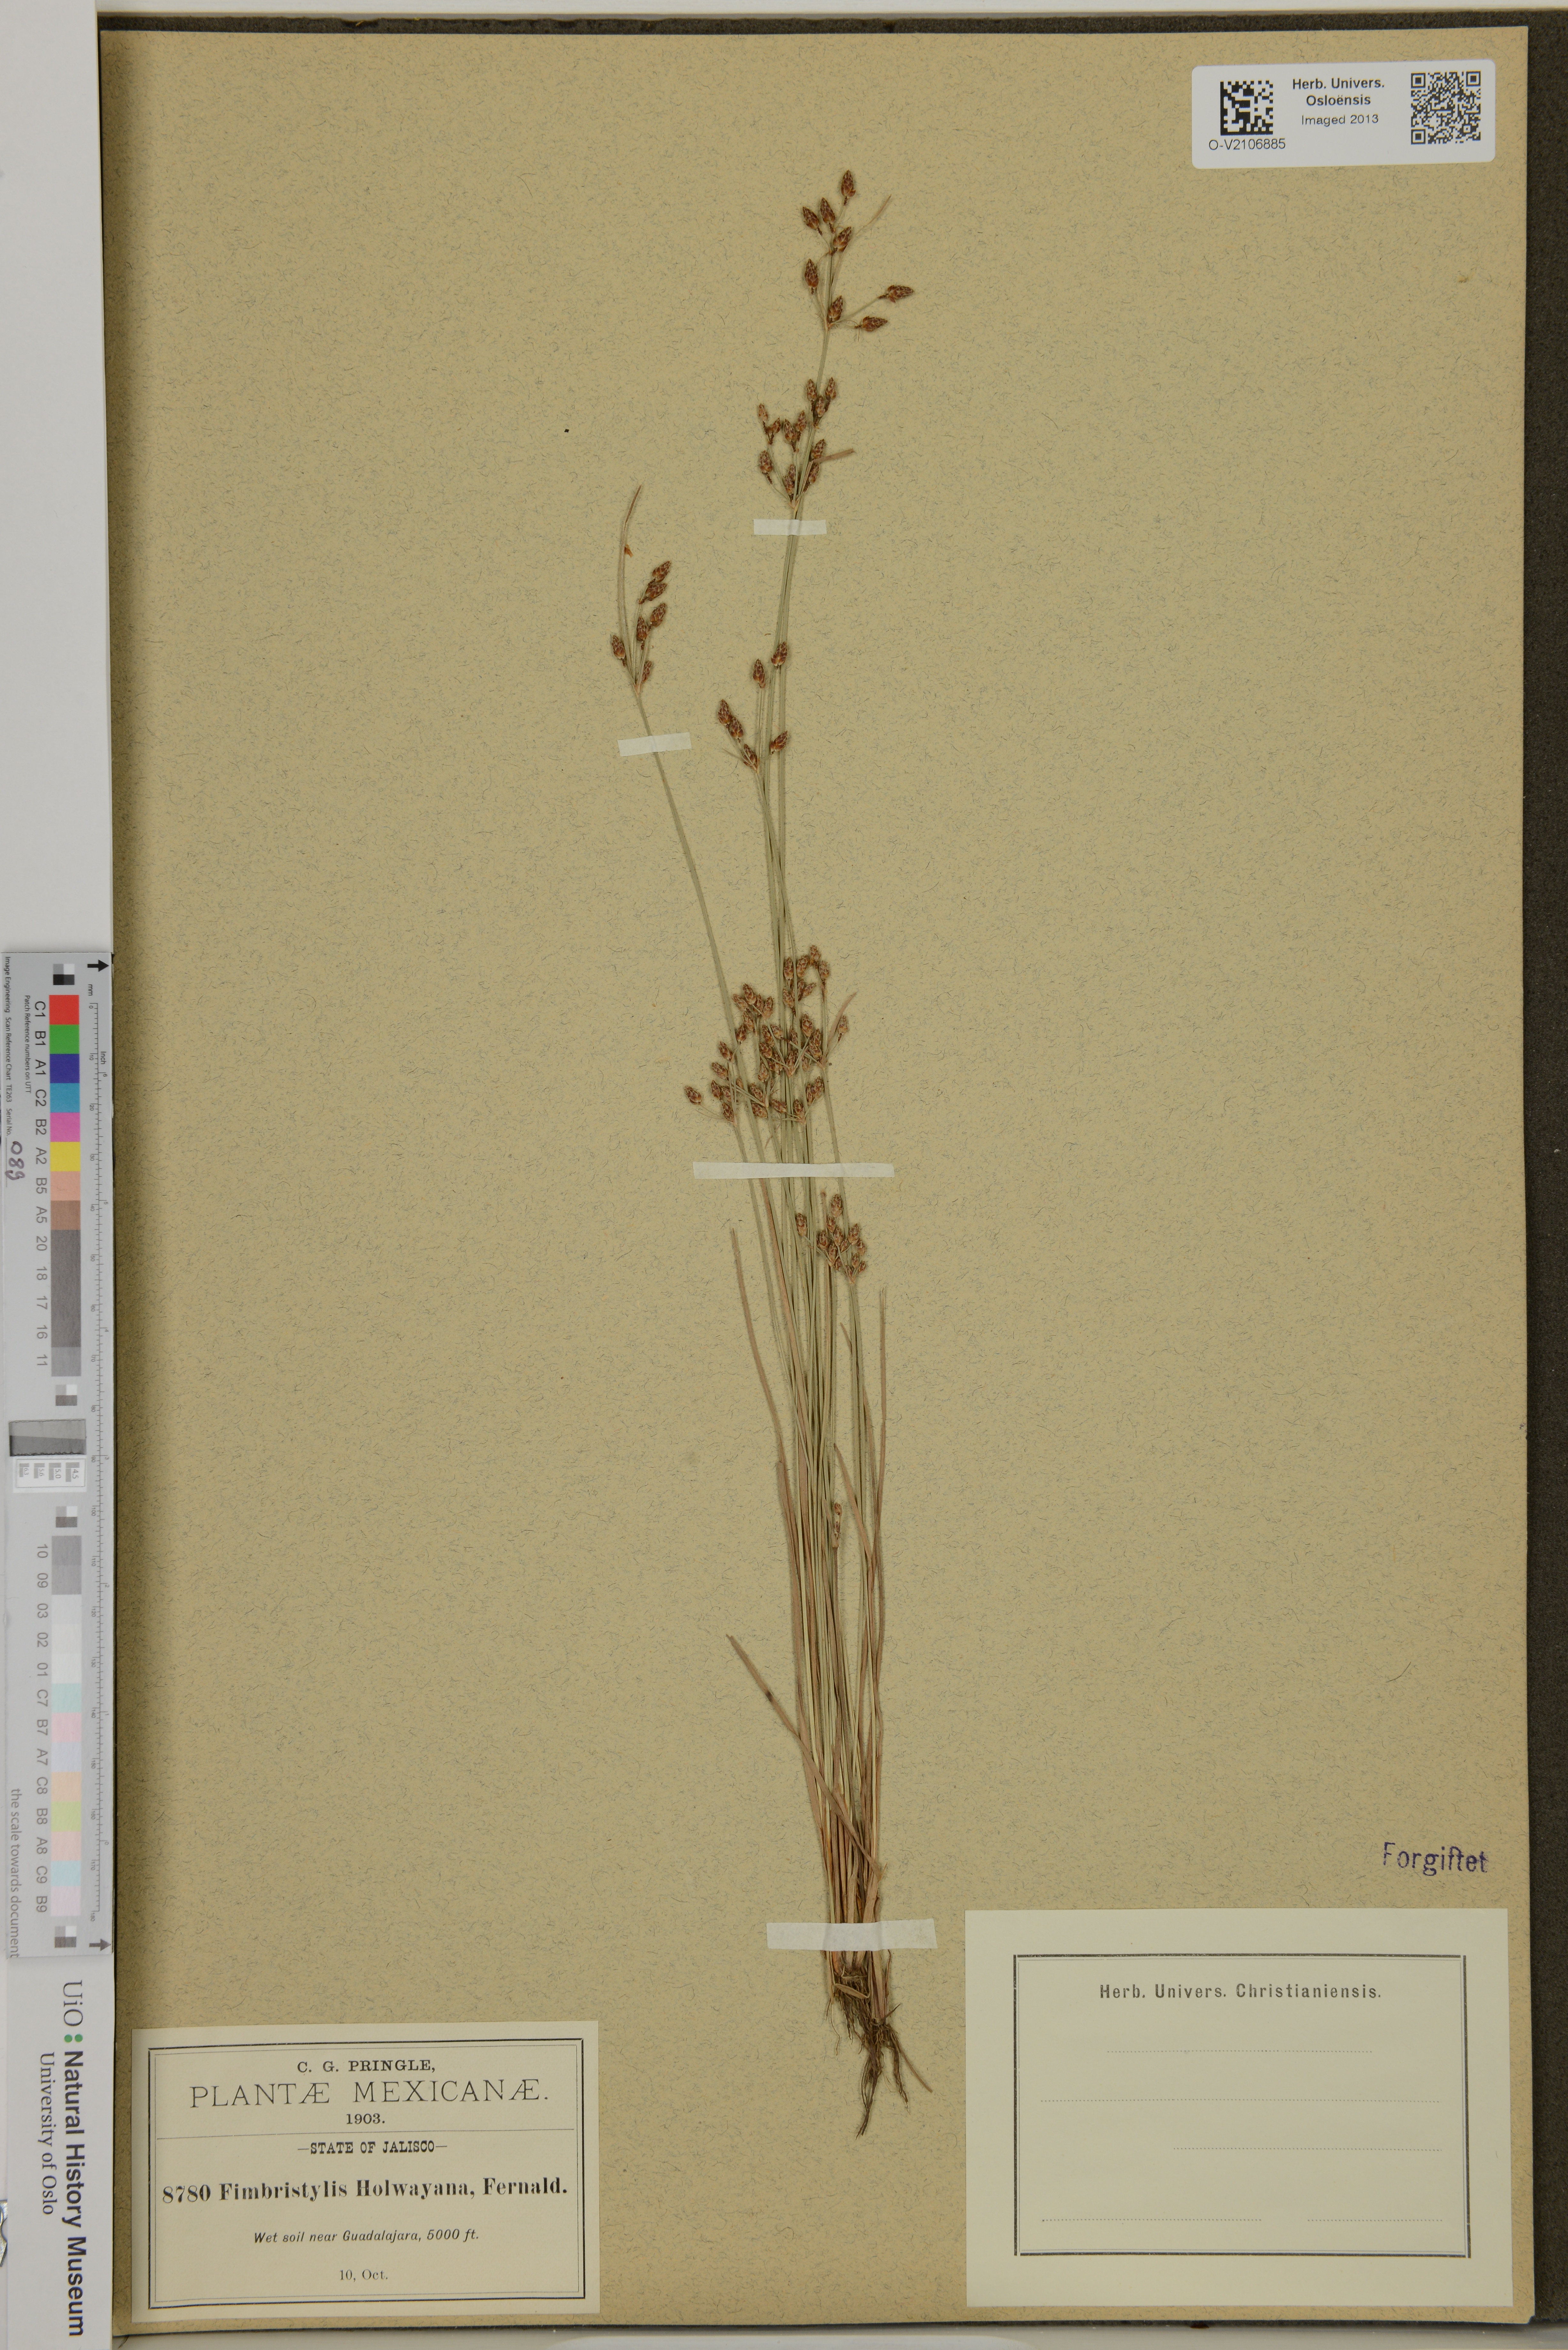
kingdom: Plantae
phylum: Tracheophyta
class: Liliopsida
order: Poales
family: Cyperaceae
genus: Fimbristylis
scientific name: Fimbristylis dichotoma
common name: Forked fimbry
